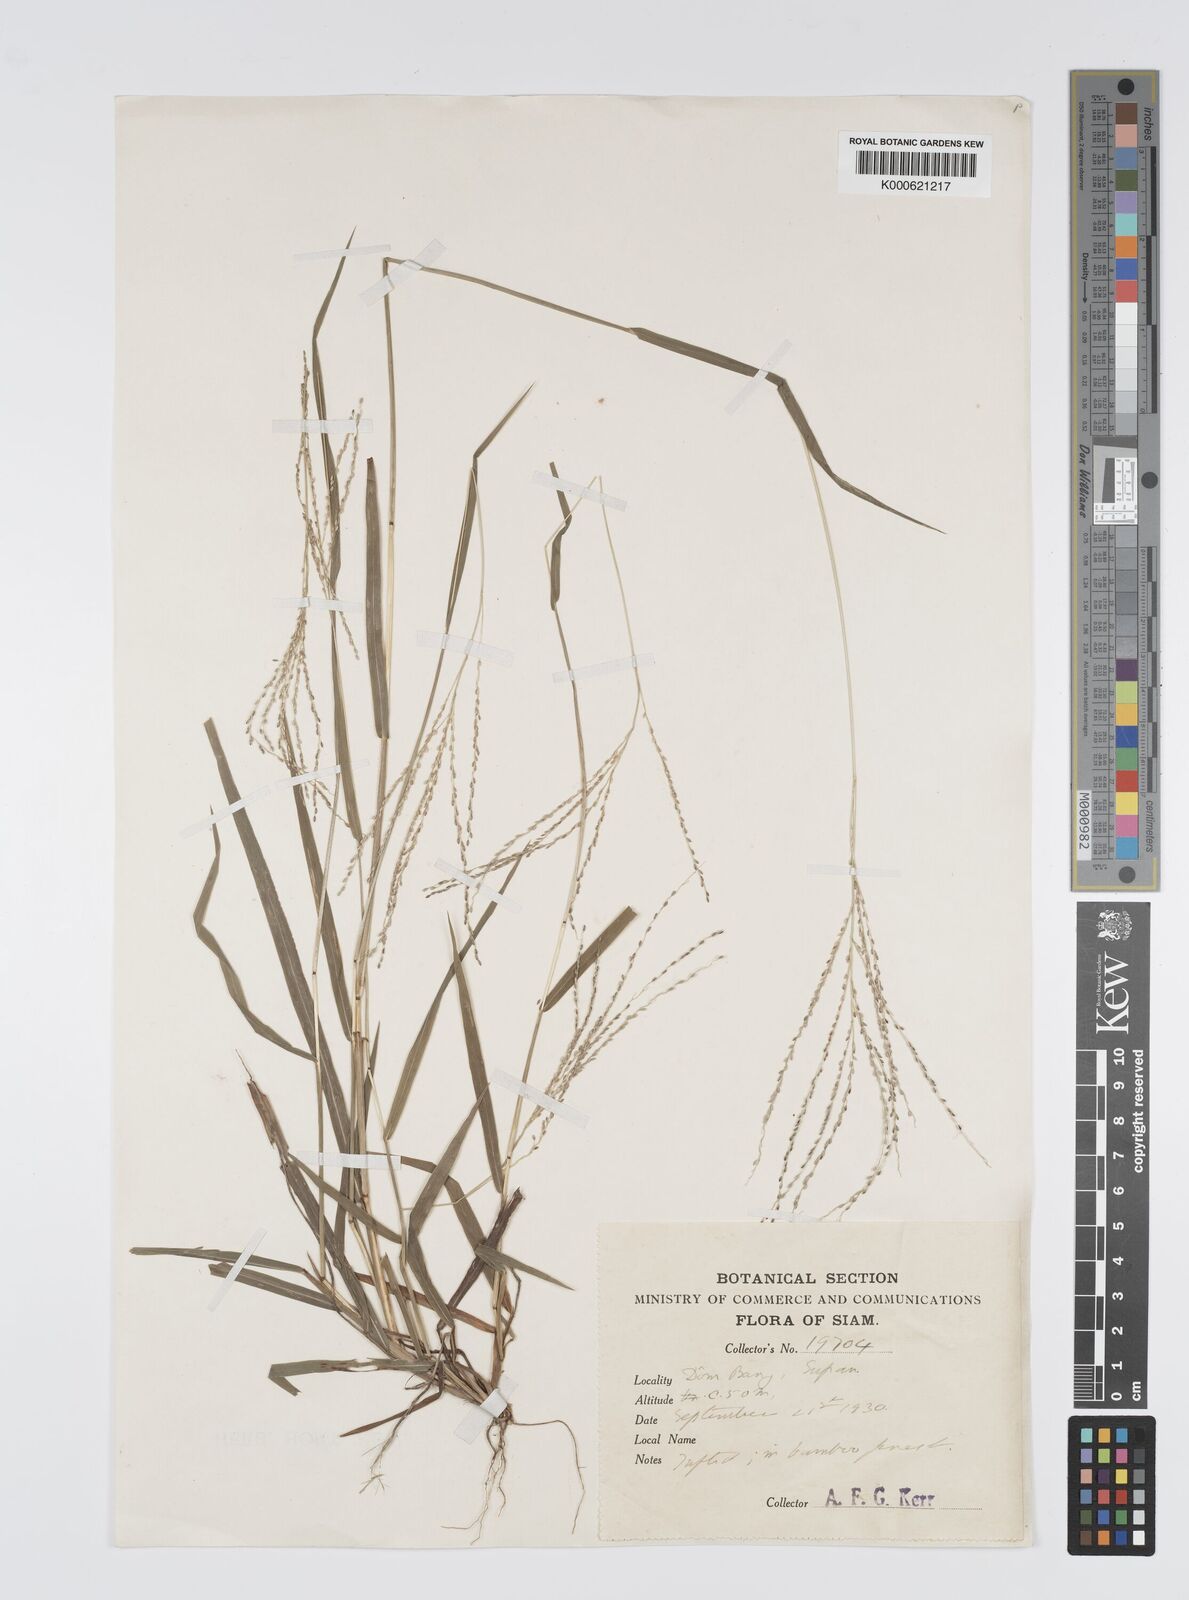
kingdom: Plantae
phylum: Tracheophyta
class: Liliopsida
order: Poales
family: Poaceae
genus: Digitaria
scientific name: Digitaria sparsifructus
